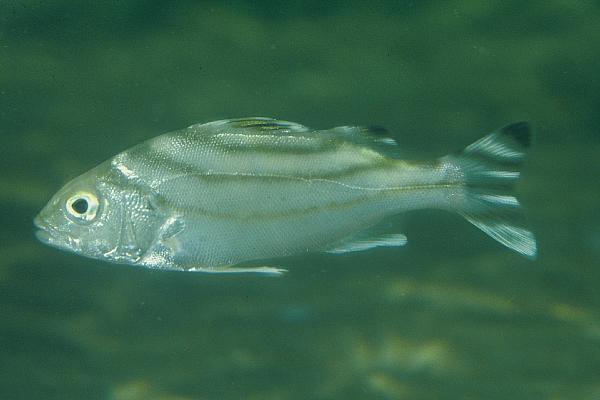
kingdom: Animalia
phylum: Chordata
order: Perciformes
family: Terapontidae
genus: Terapon
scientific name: Terapon jarbua
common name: Jarbua terapon
